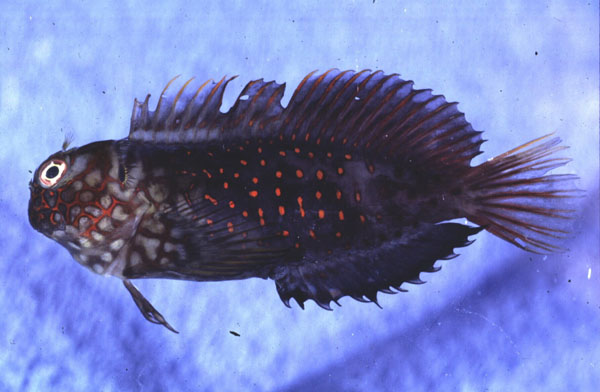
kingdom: Animalia
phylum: Chordata
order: Perciformes
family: Blenniidae
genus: Cirripectes
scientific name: Cirripectes stigmaticus
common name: Red-streaked blenny
